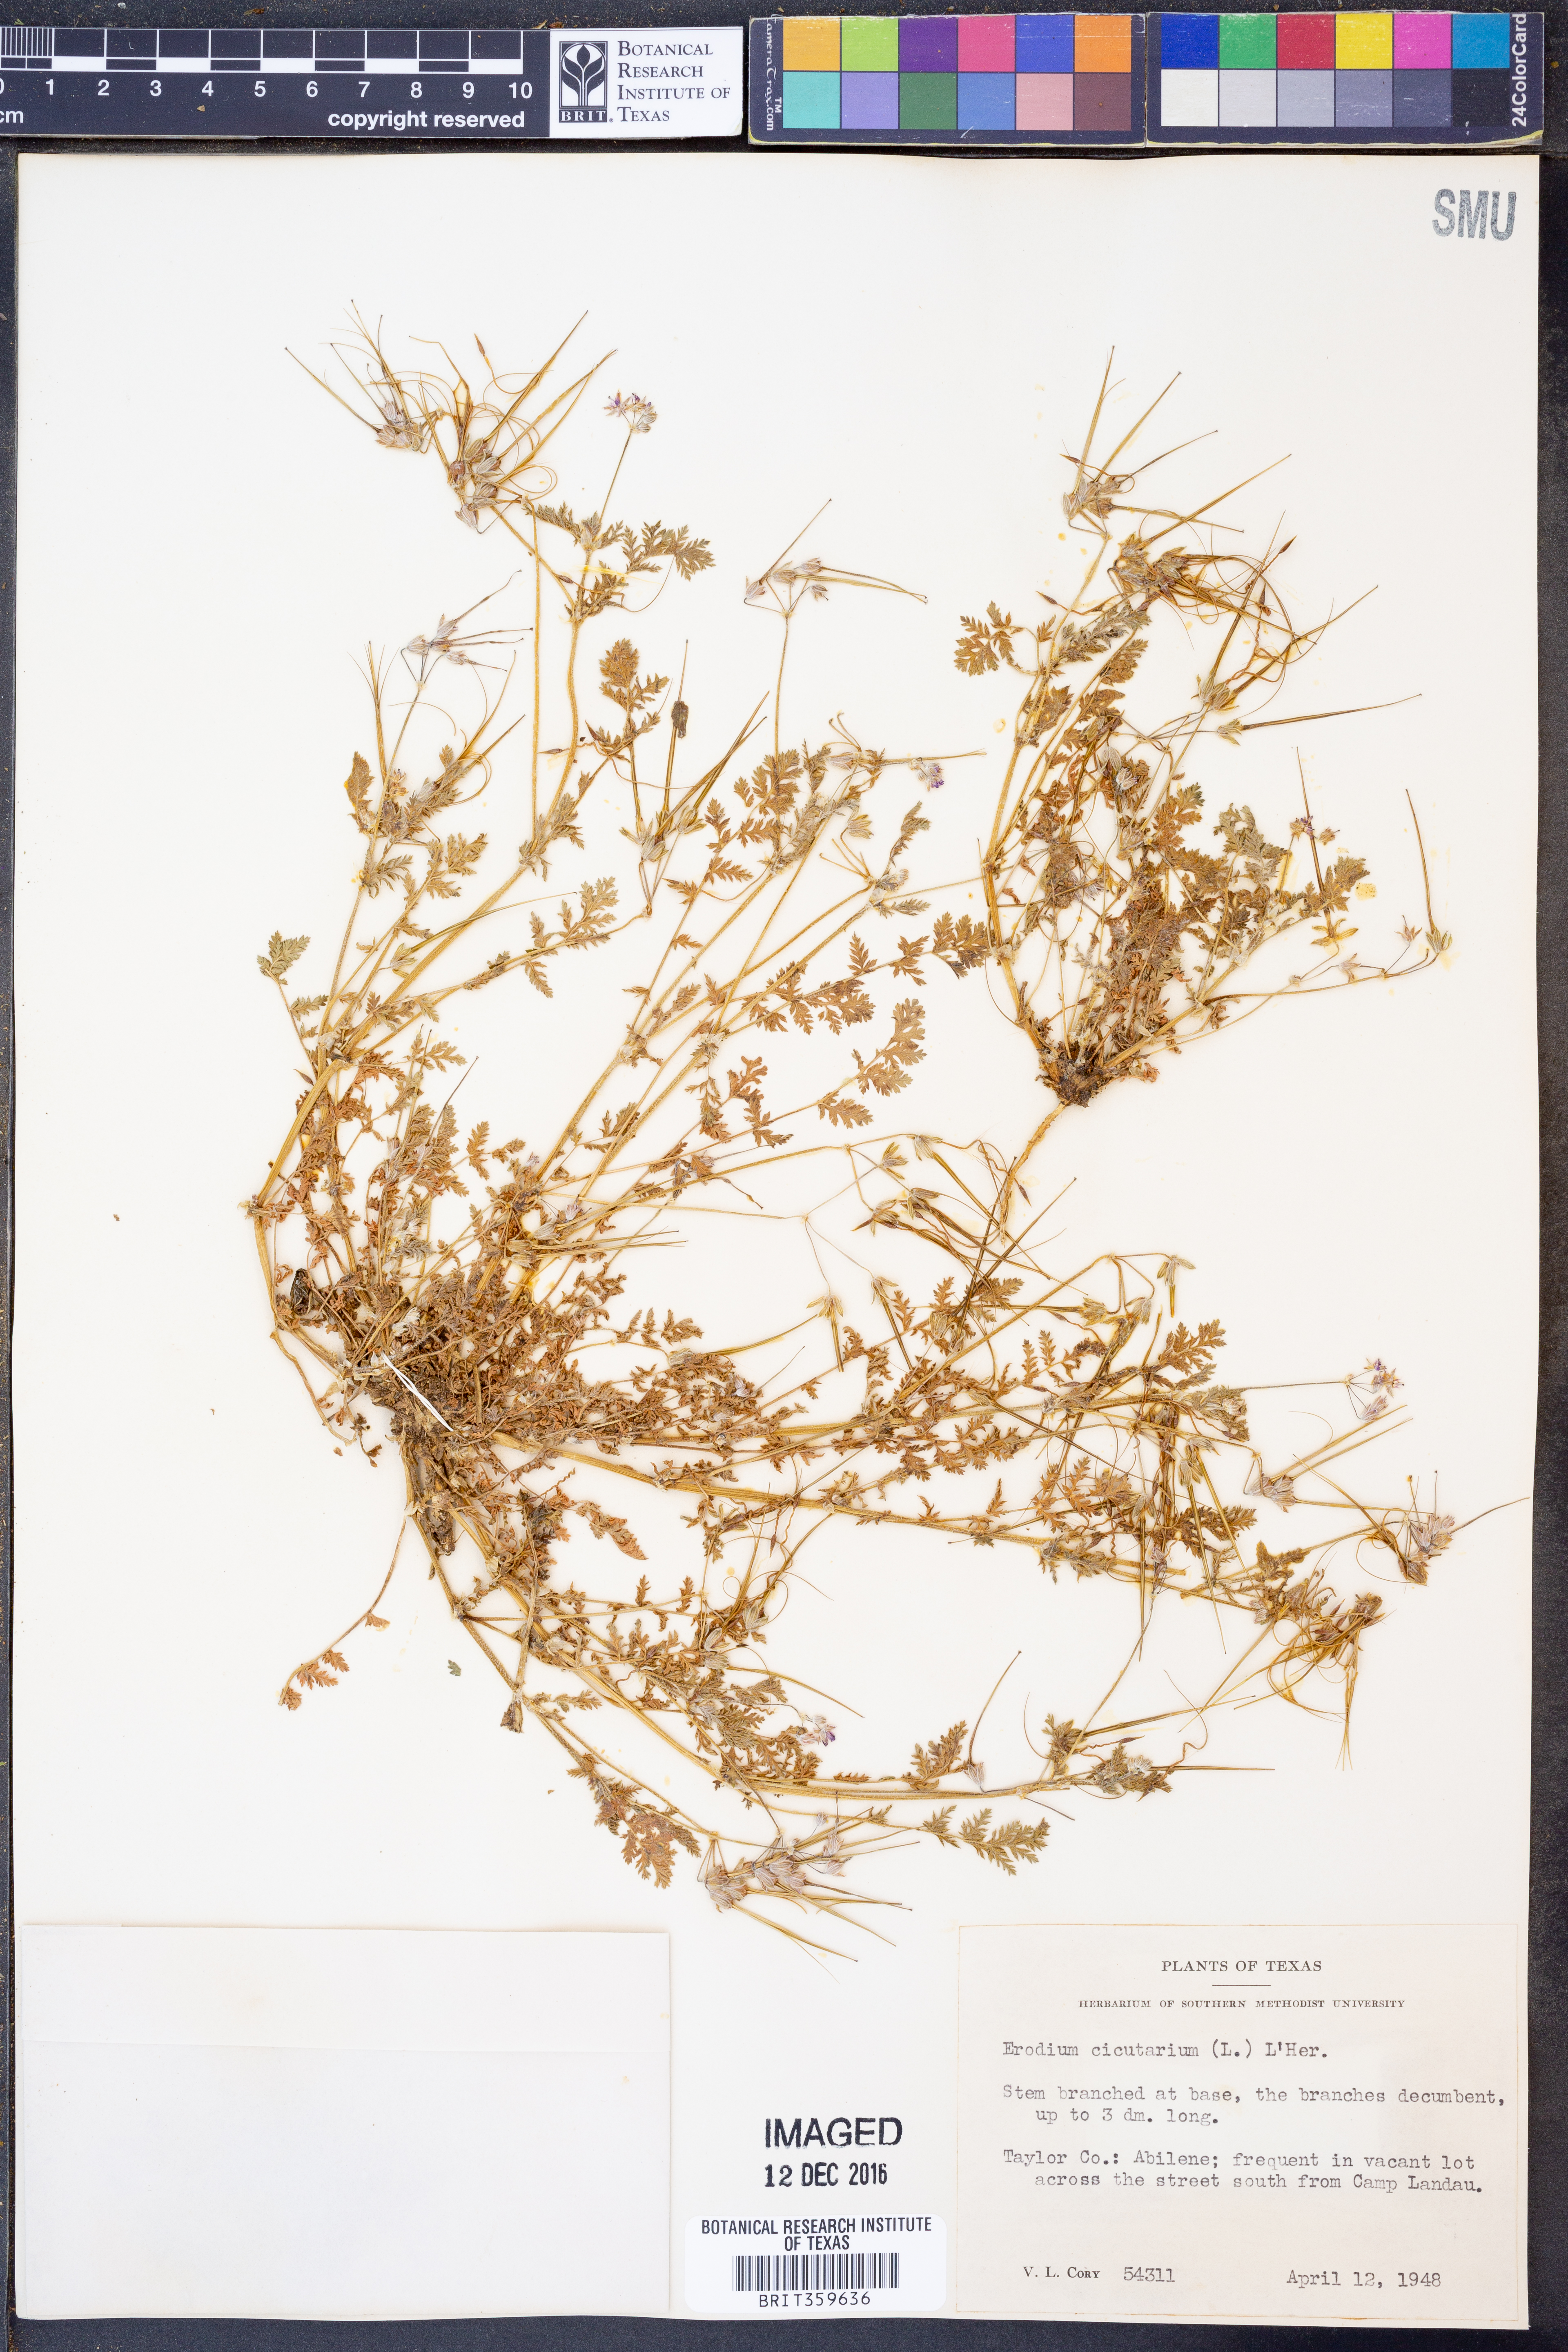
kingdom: Plantae
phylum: Tracheophyta
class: Magnoliopsida
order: Geraniales
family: Geraniaceae
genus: Erodium
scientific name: Erodium cicutarium
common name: Common stork's-bill
